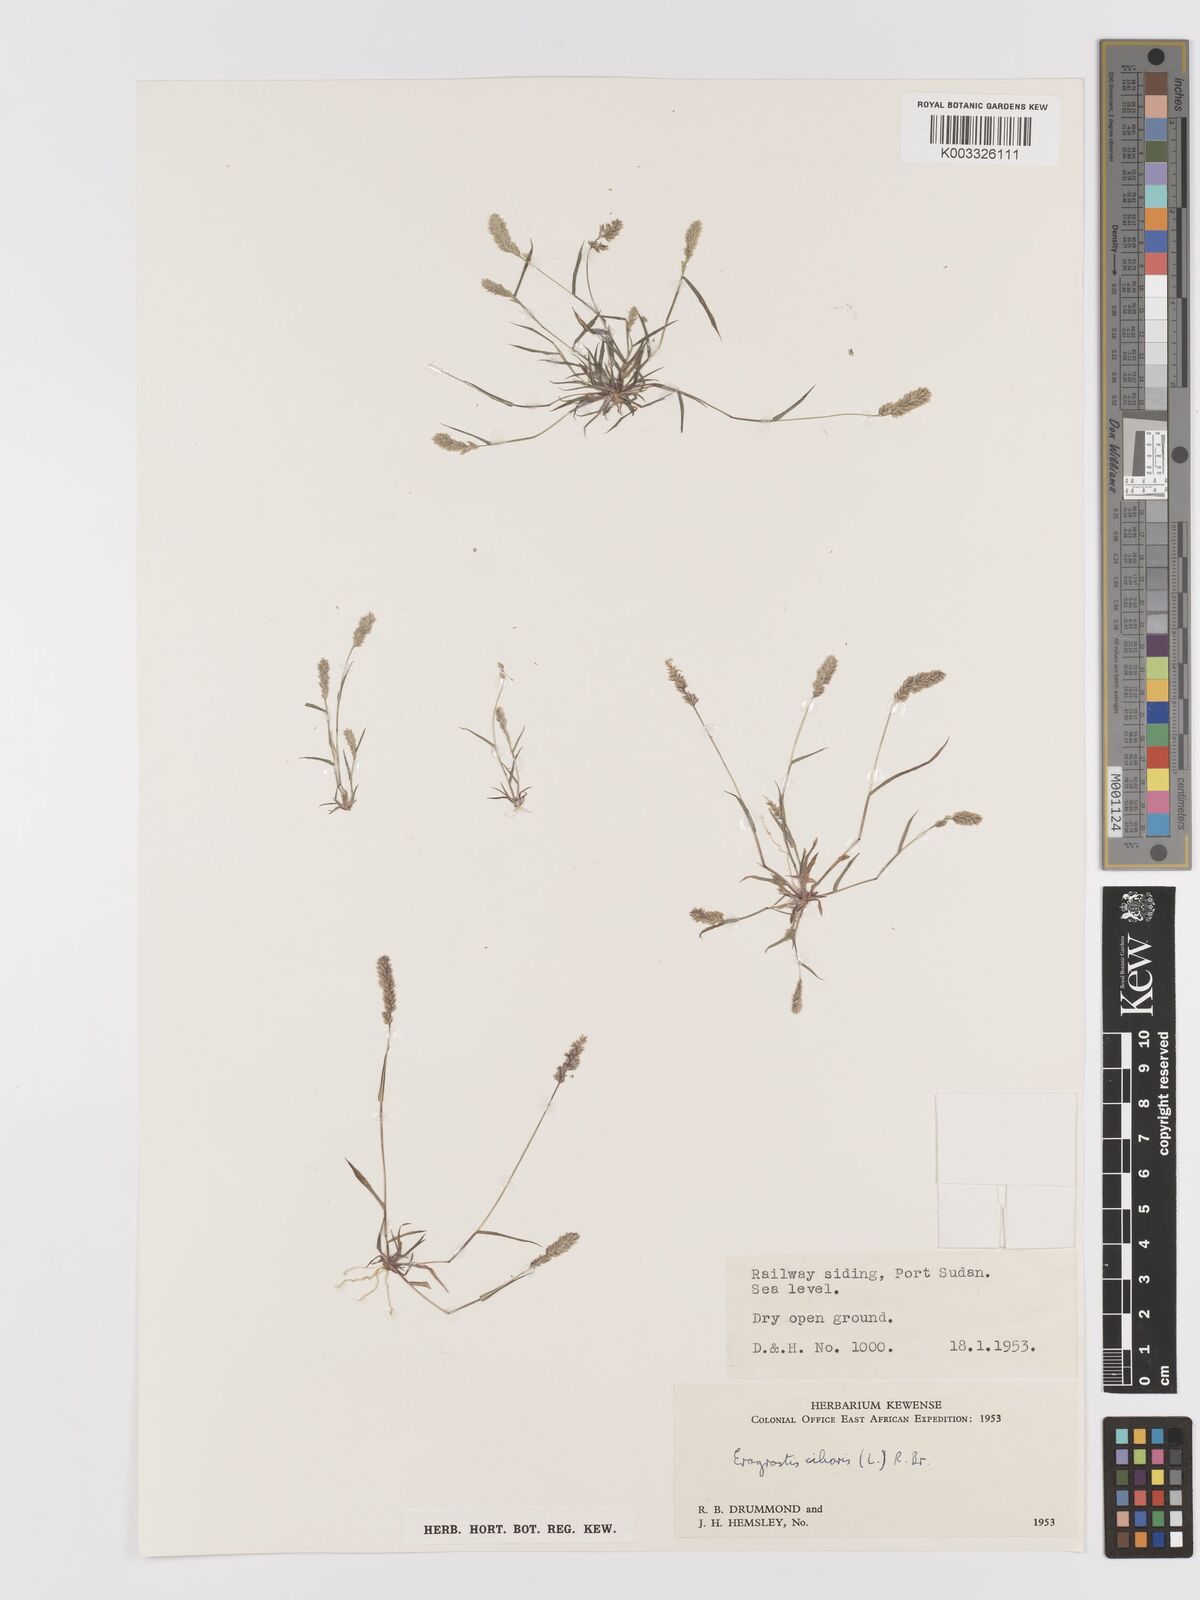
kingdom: Plantae
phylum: Tracheophyta
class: Liliopsida
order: Poales
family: Poaceae
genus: Eragrostis
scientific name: Eragrostis ciliaris
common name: Gophertail lovegrass
